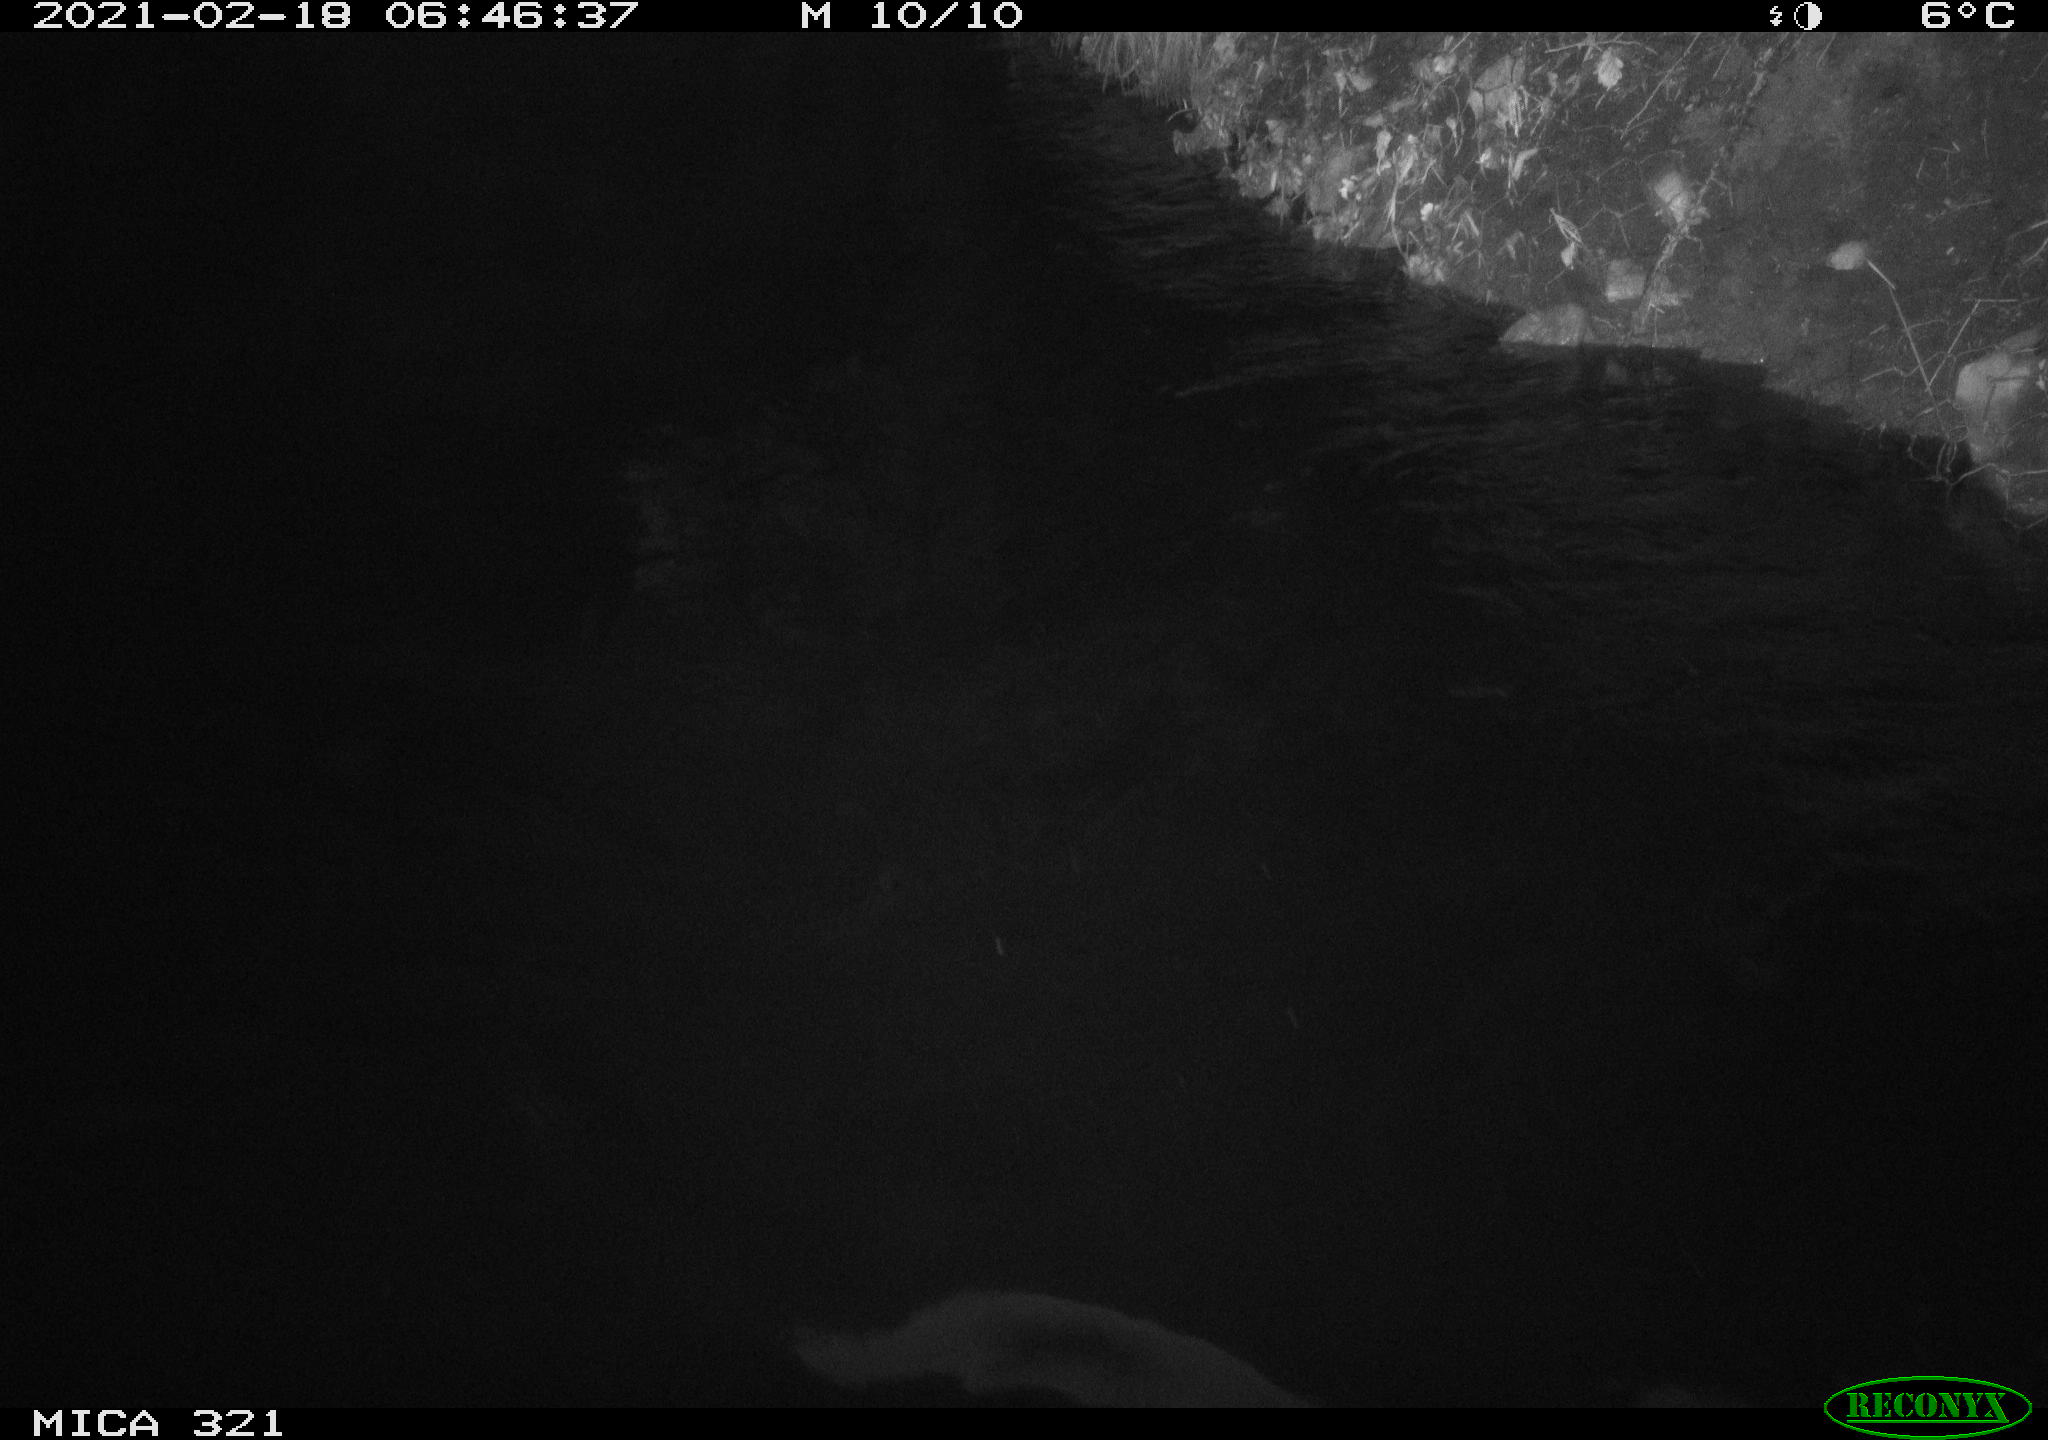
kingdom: Animalia
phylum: Chordata
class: Aves
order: Anseriformes
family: Anatidae
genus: Anas
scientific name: Anas platyrhynchos
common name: Mallard
